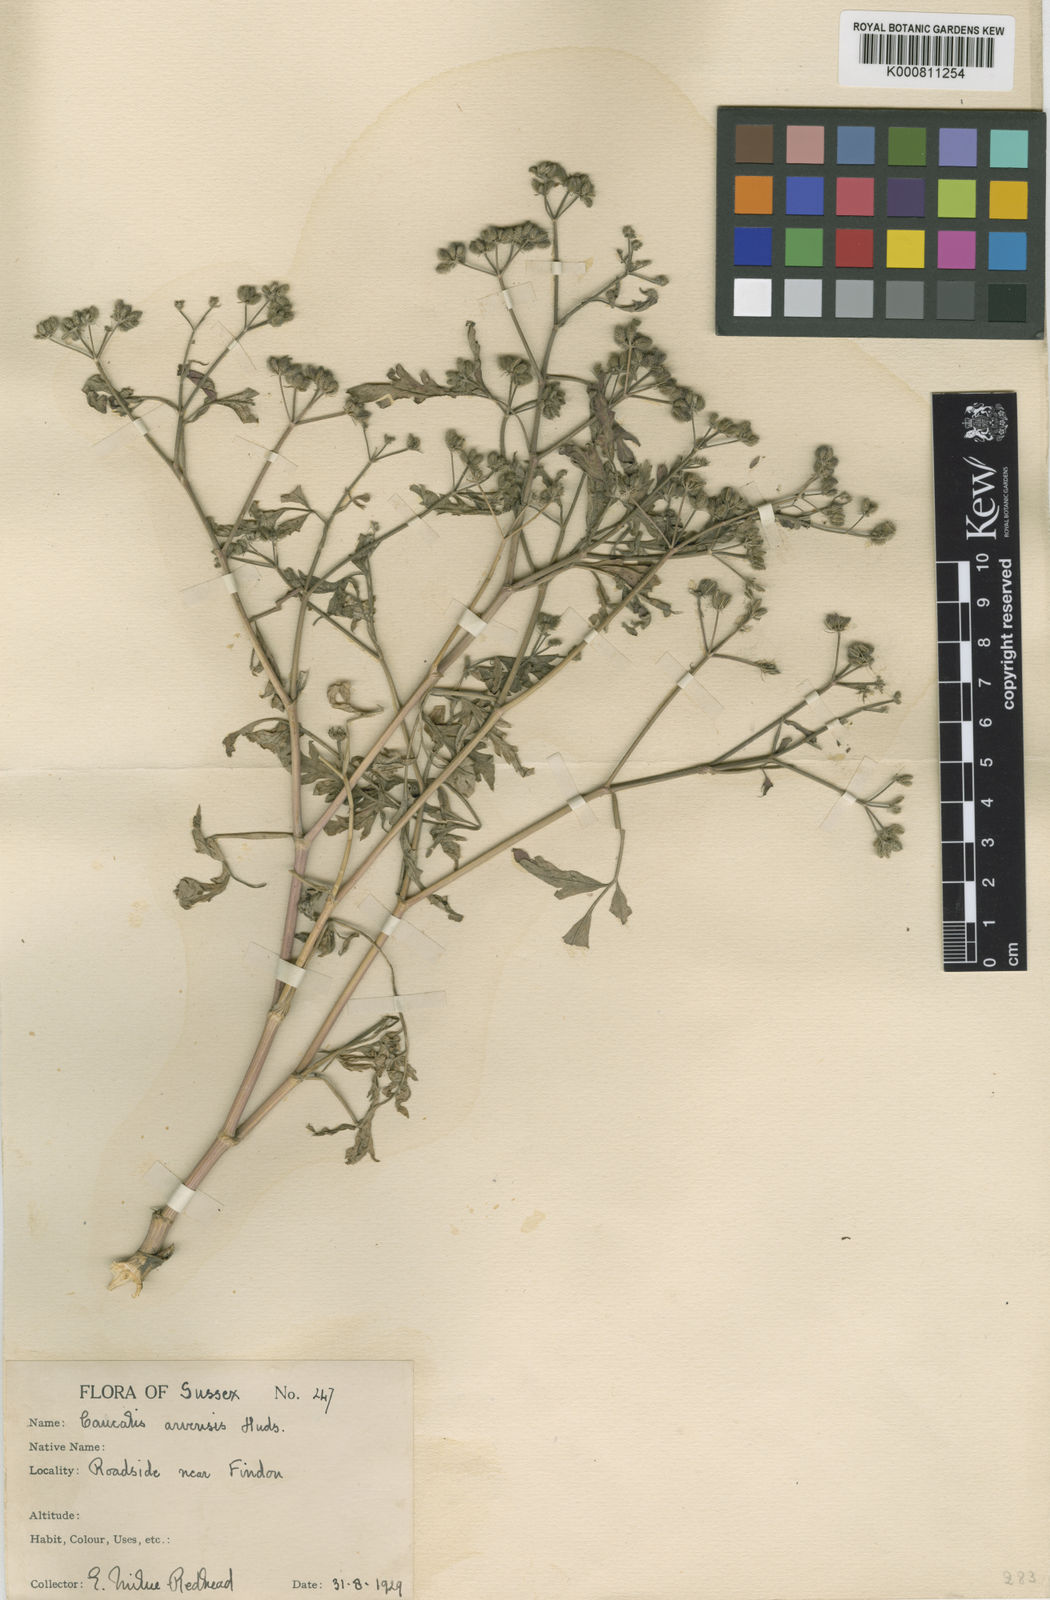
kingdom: Plantae
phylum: Tracheophyta
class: Magnoliopsida
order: Apiales
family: Apiaceae
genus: Torilis
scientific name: Torilis arvensis
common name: Spreading hedge-parsley
